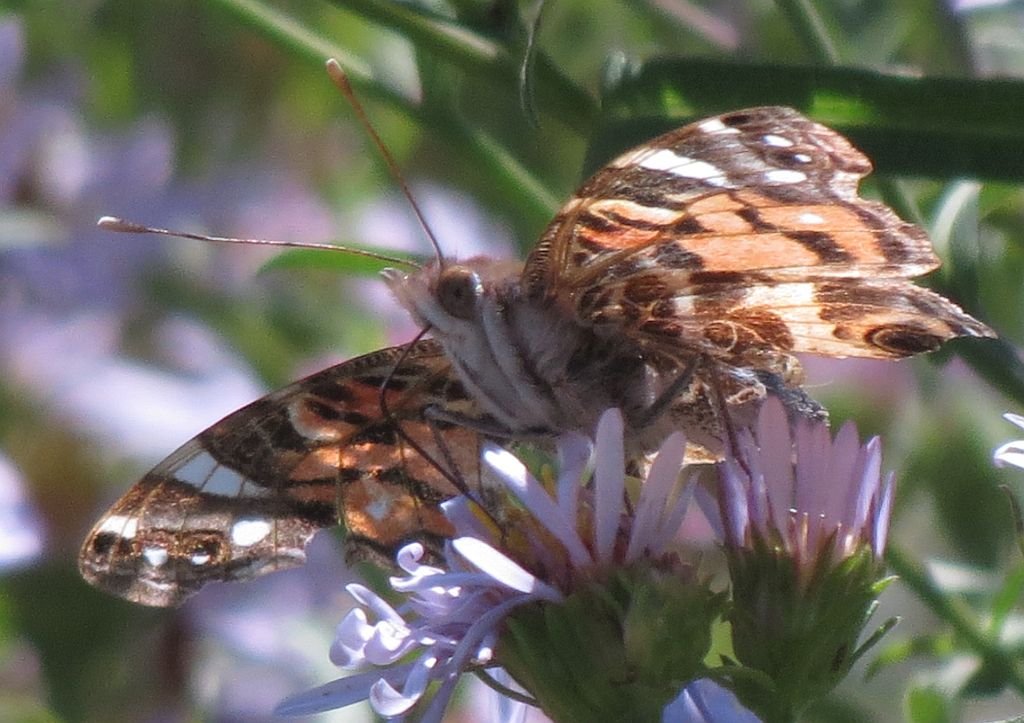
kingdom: Animalia
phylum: Arthropoda
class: Insecta
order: Lepidoptera
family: Nymphalidae
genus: Vanessa
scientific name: Vanessa virginiensis
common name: American Lady
